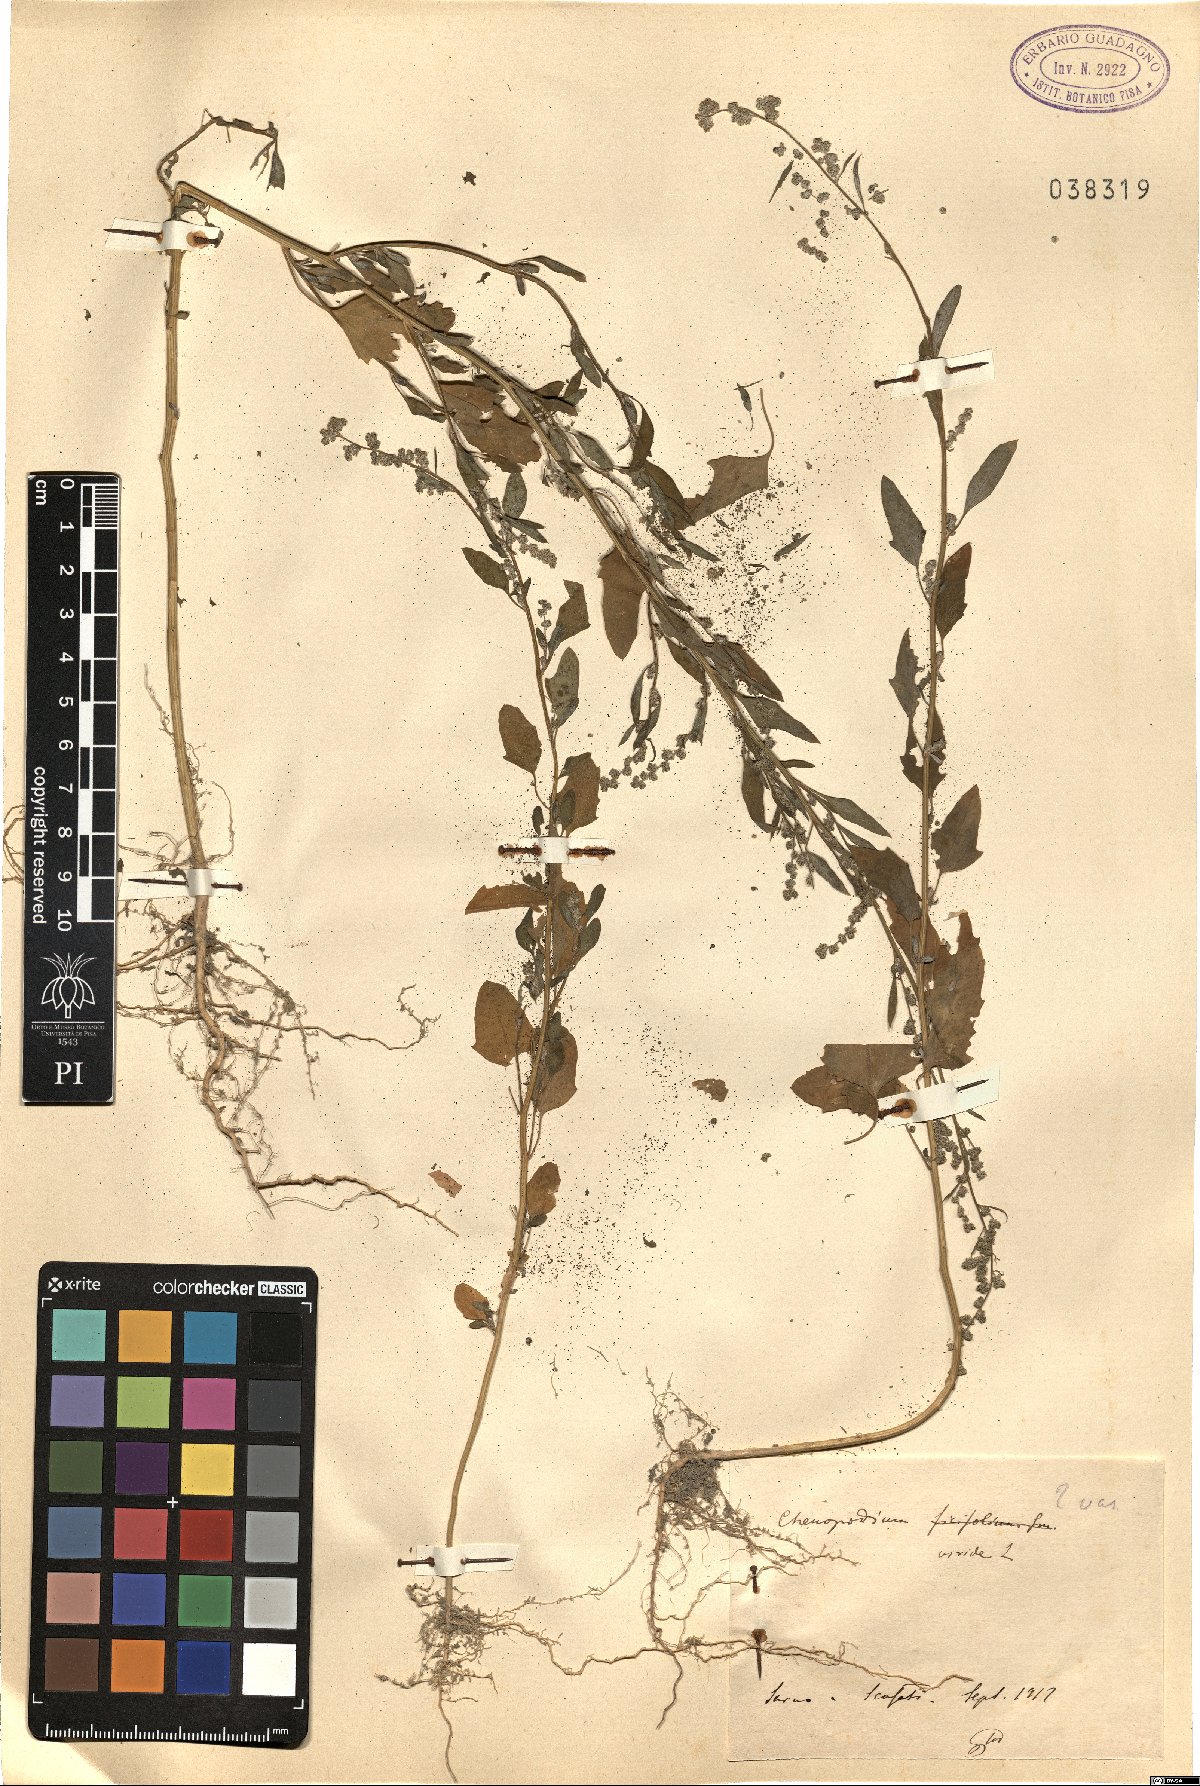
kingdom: Plantae
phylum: Tracheophyta
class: Magnoliopsida
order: Caryophyllales
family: Amaranthaceae
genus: Chenopodium
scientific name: Chenopodium album
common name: Fat-hen
